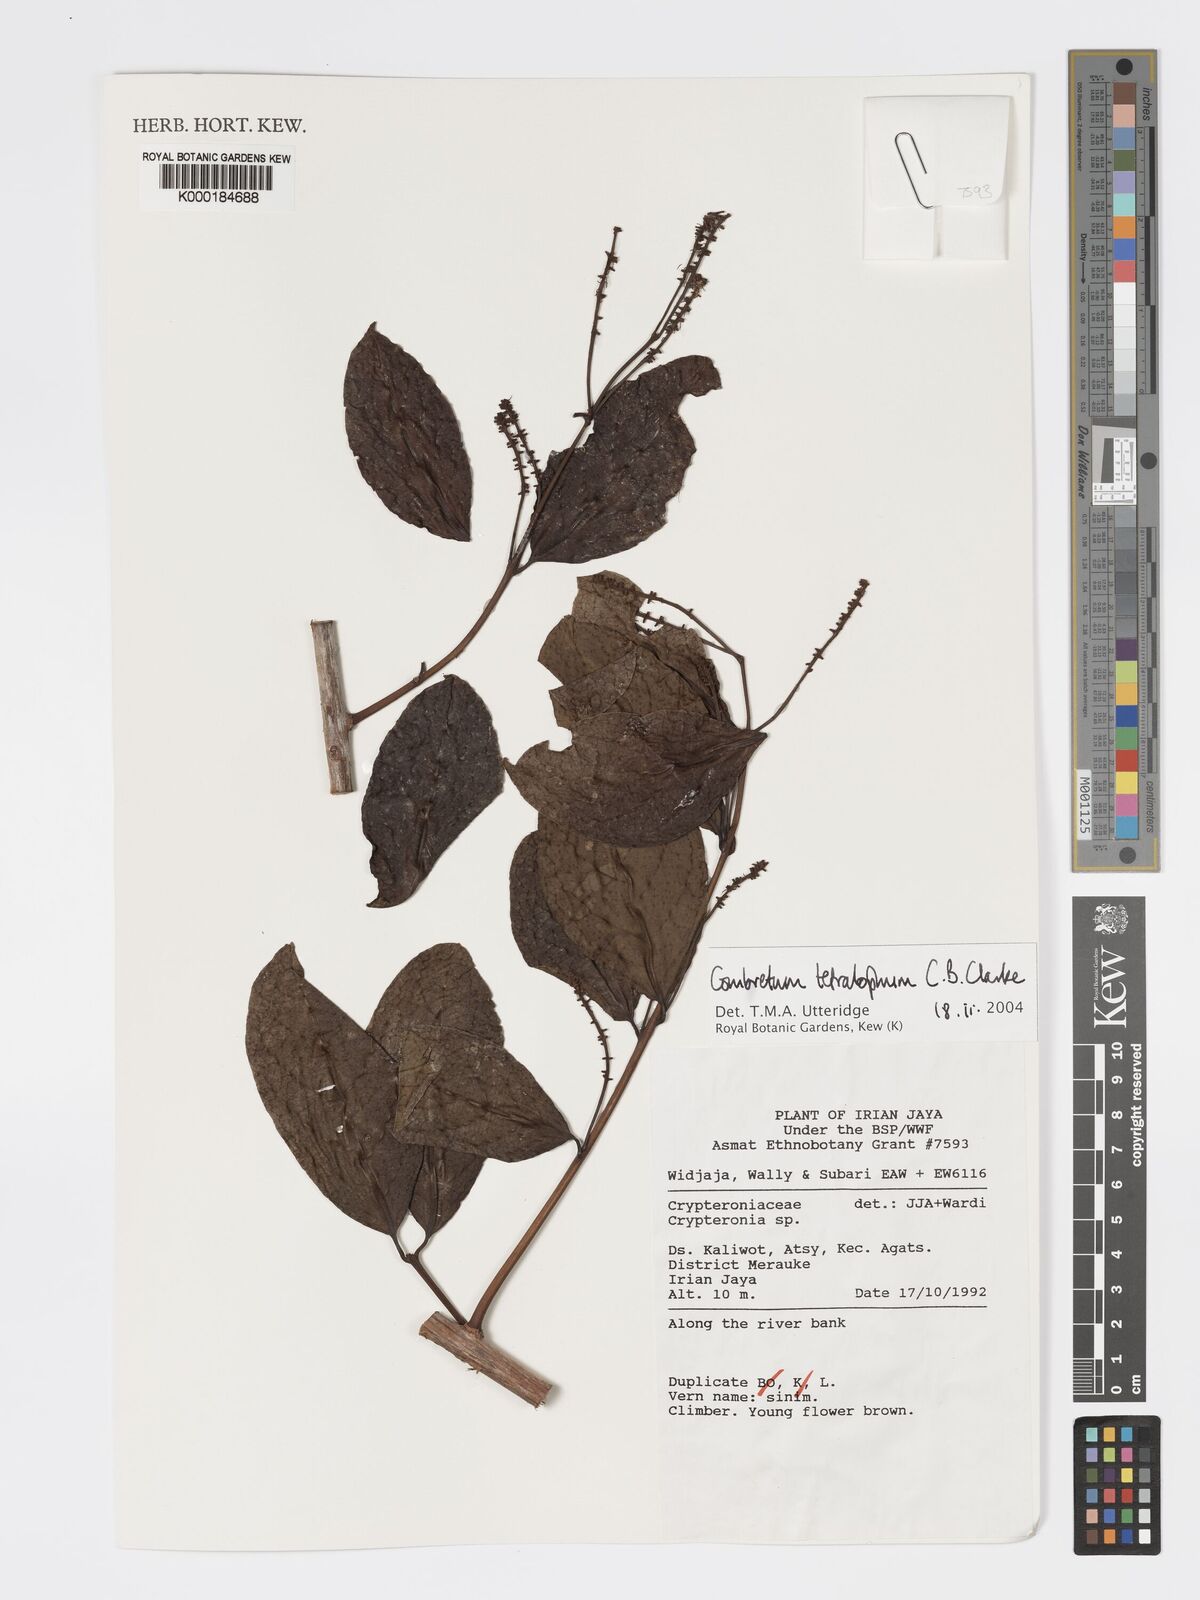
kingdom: Plantae
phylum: Tracheophyta
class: Magnoliopsida
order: Myrtales
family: Combretaceae
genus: Combretum
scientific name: Combretum tetralophum
